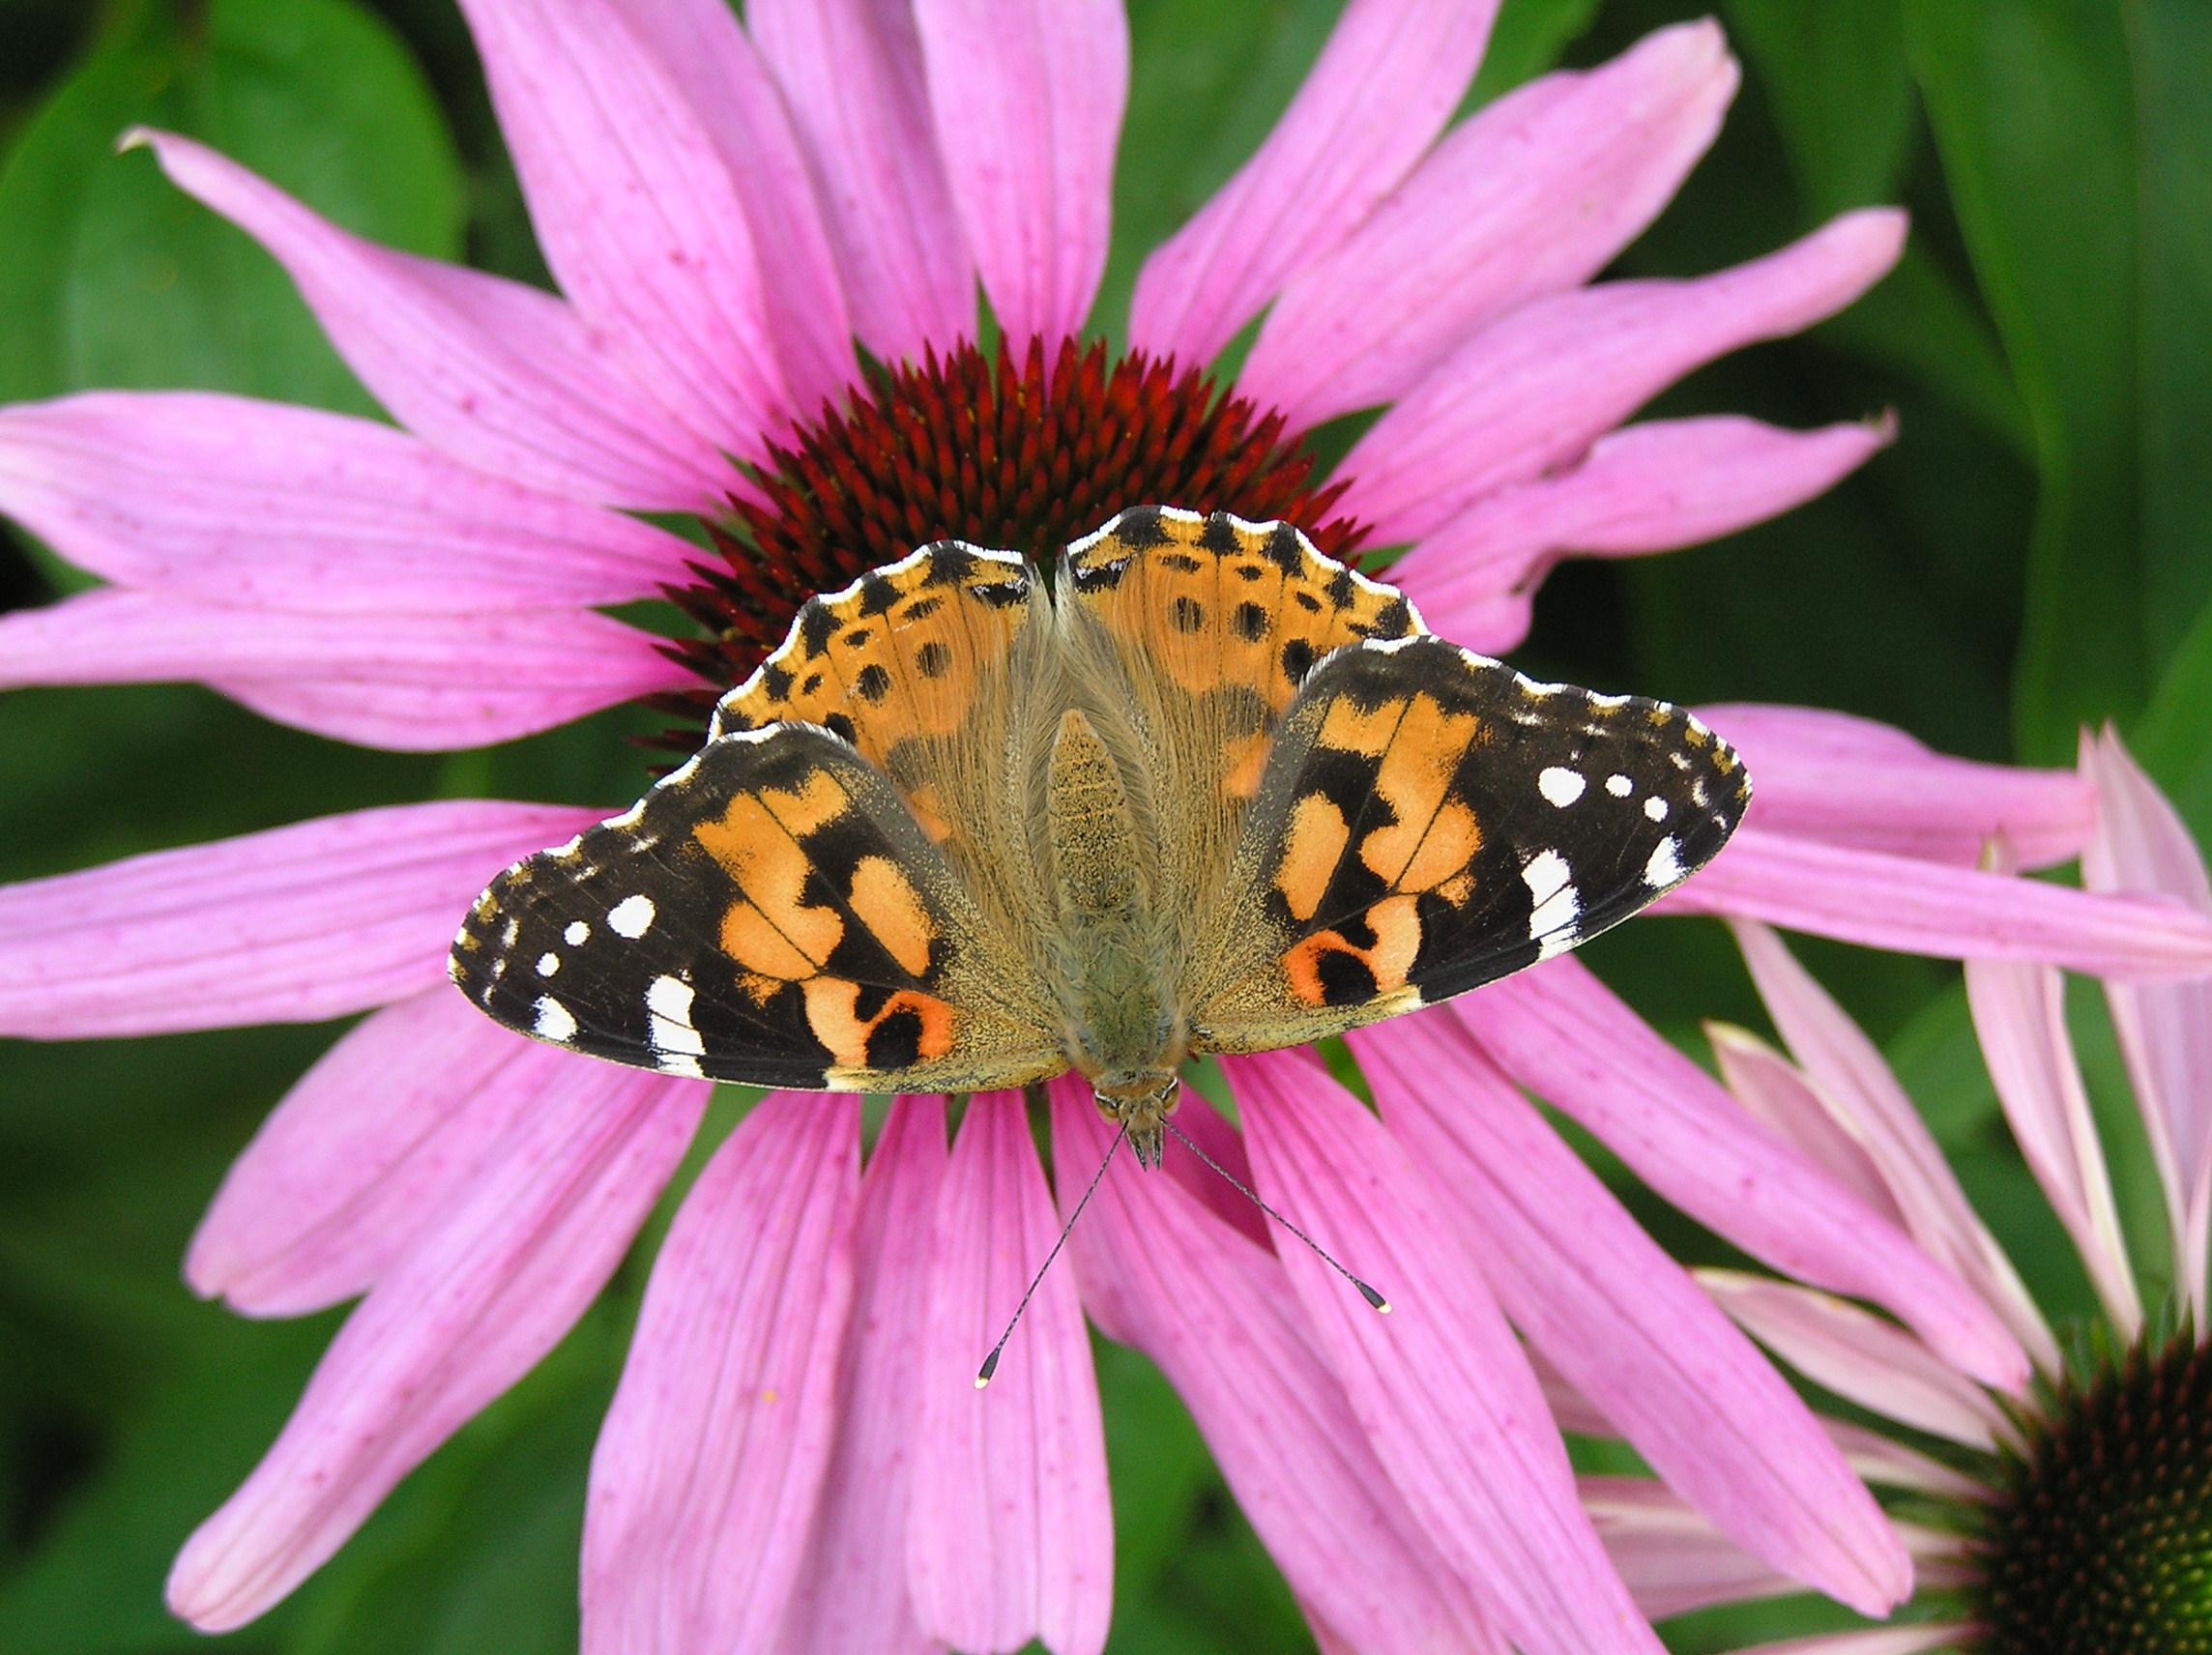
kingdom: Animalia
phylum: Arthropoda
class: Insecta
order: Lepidoptera
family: Nymphalidae
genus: Vanessa
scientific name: Vanessa cardui
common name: Tidselsommerfugl
